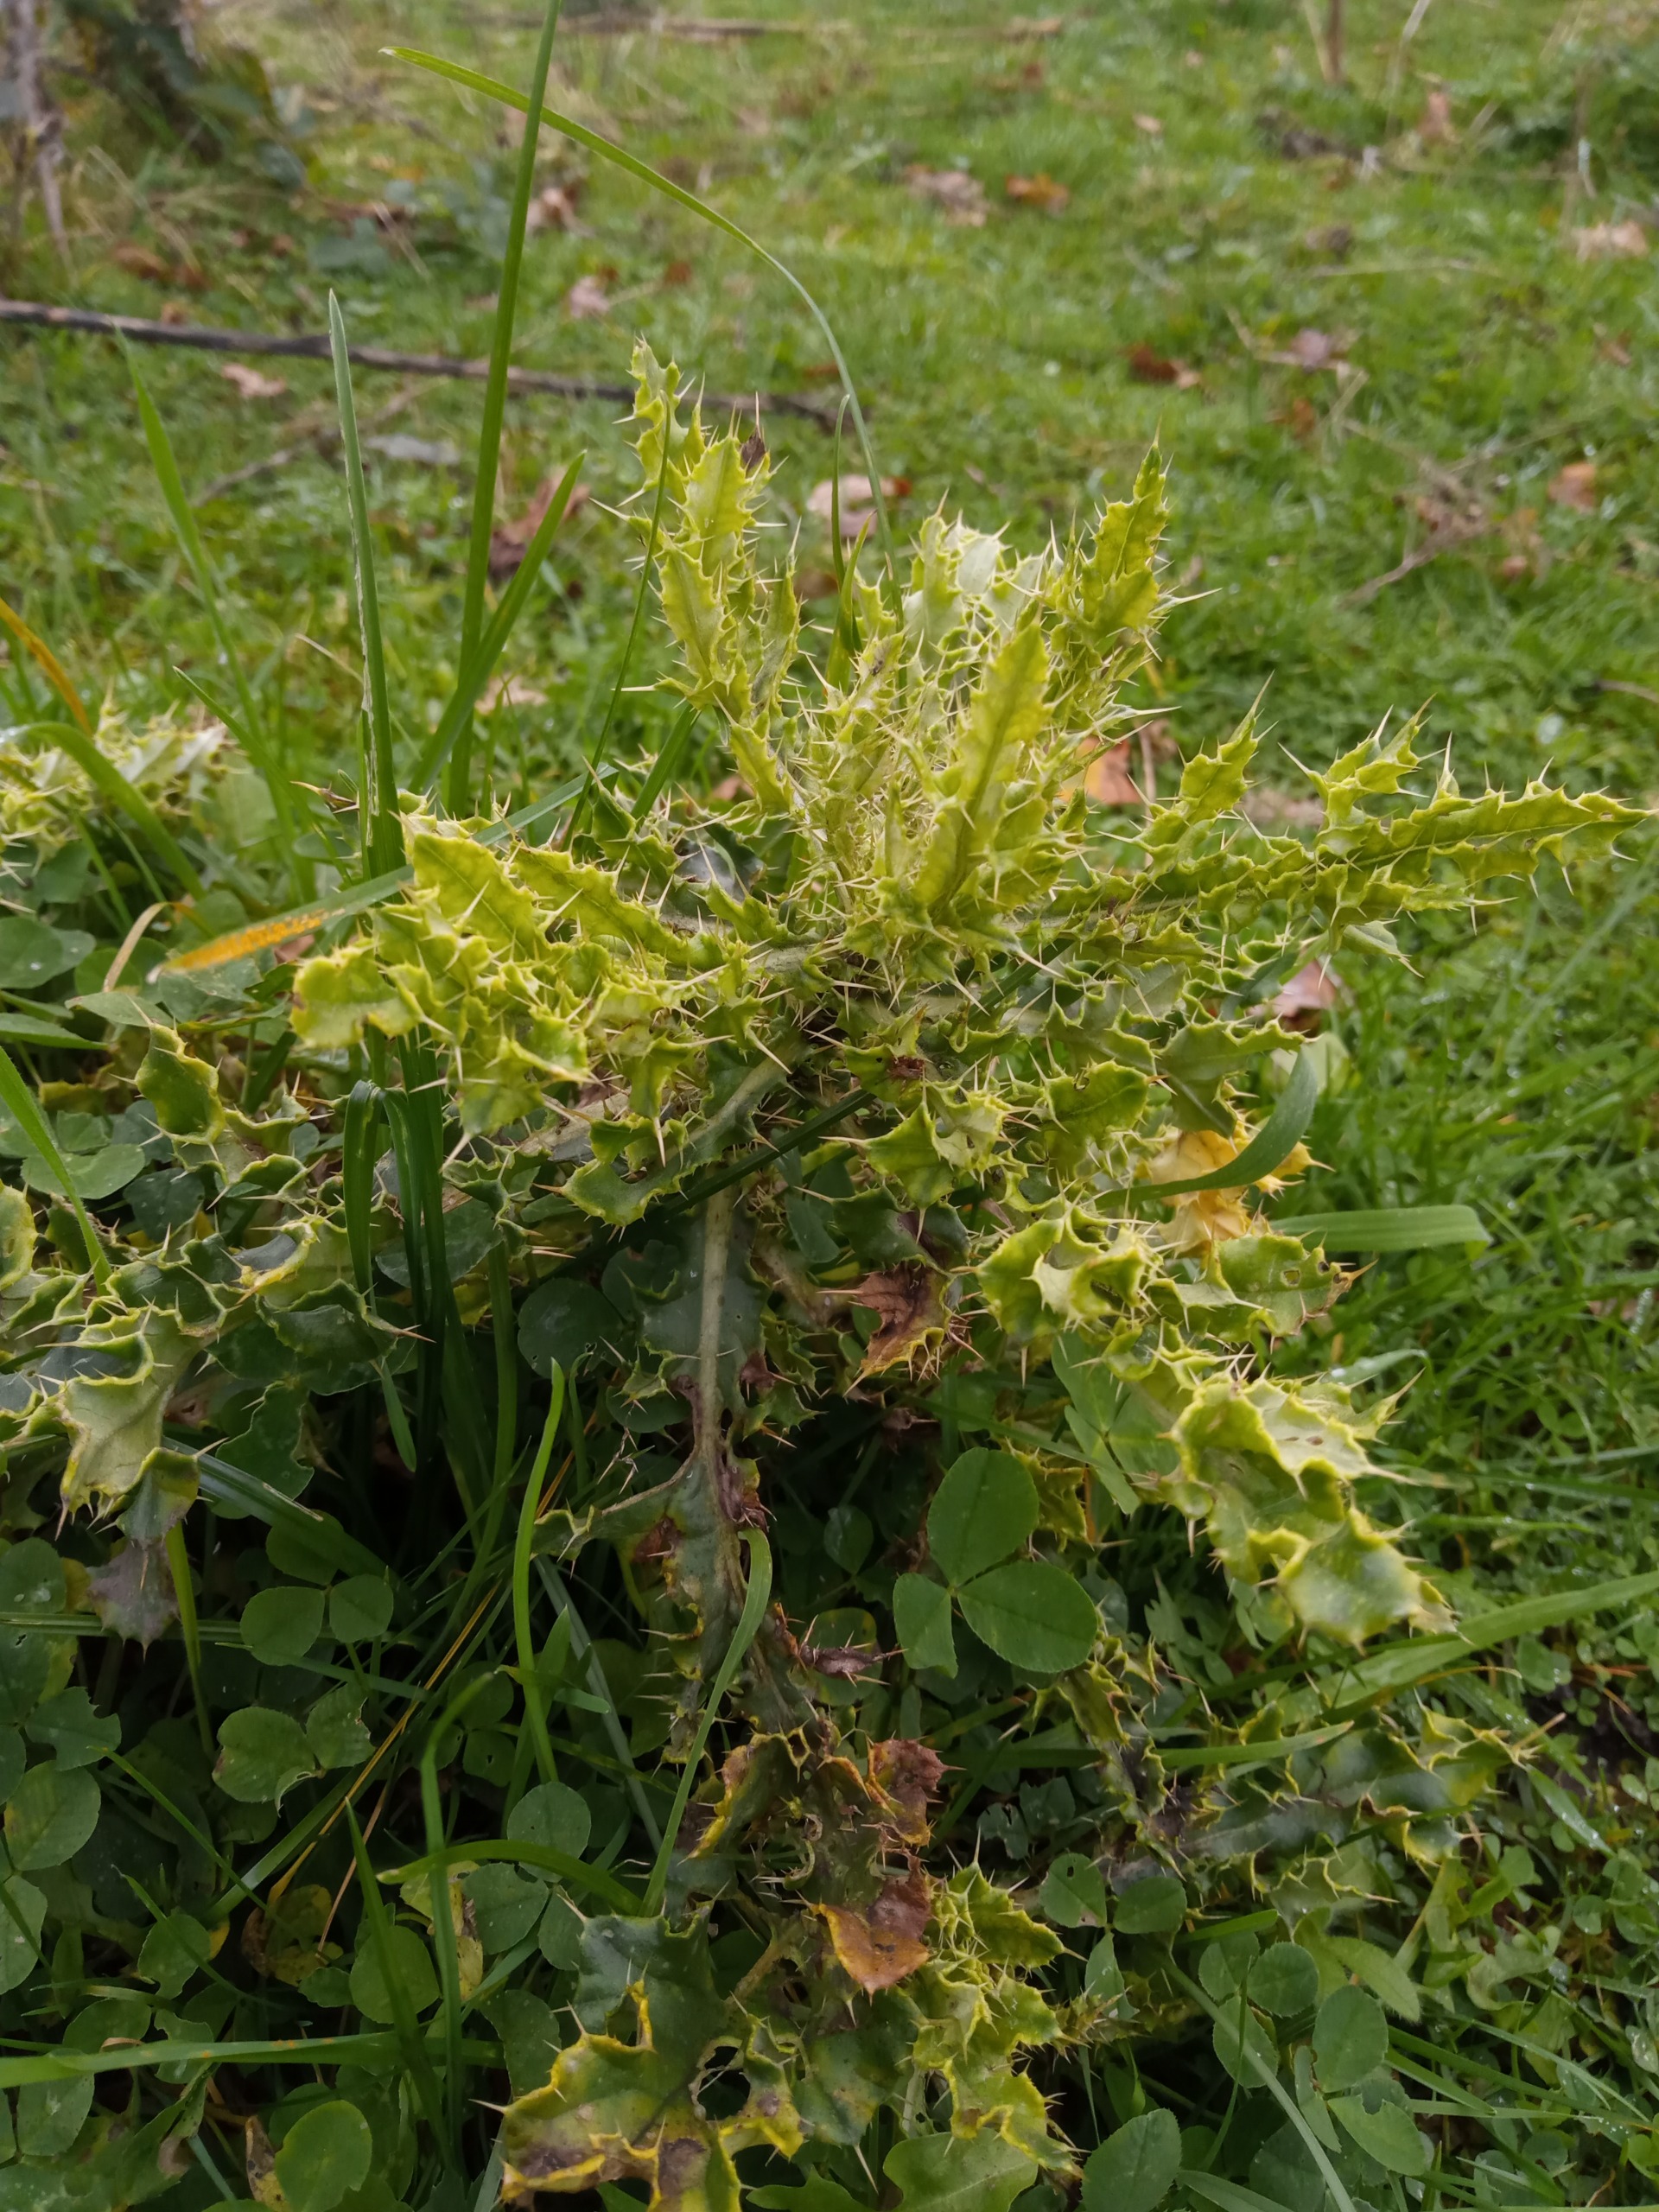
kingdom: Plantae
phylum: Tracheophyta
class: Magnoliopsida
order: Asterales
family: Asteraceae
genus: Cirsium
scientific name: Cirsium arvense
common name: Ager-tidsel
